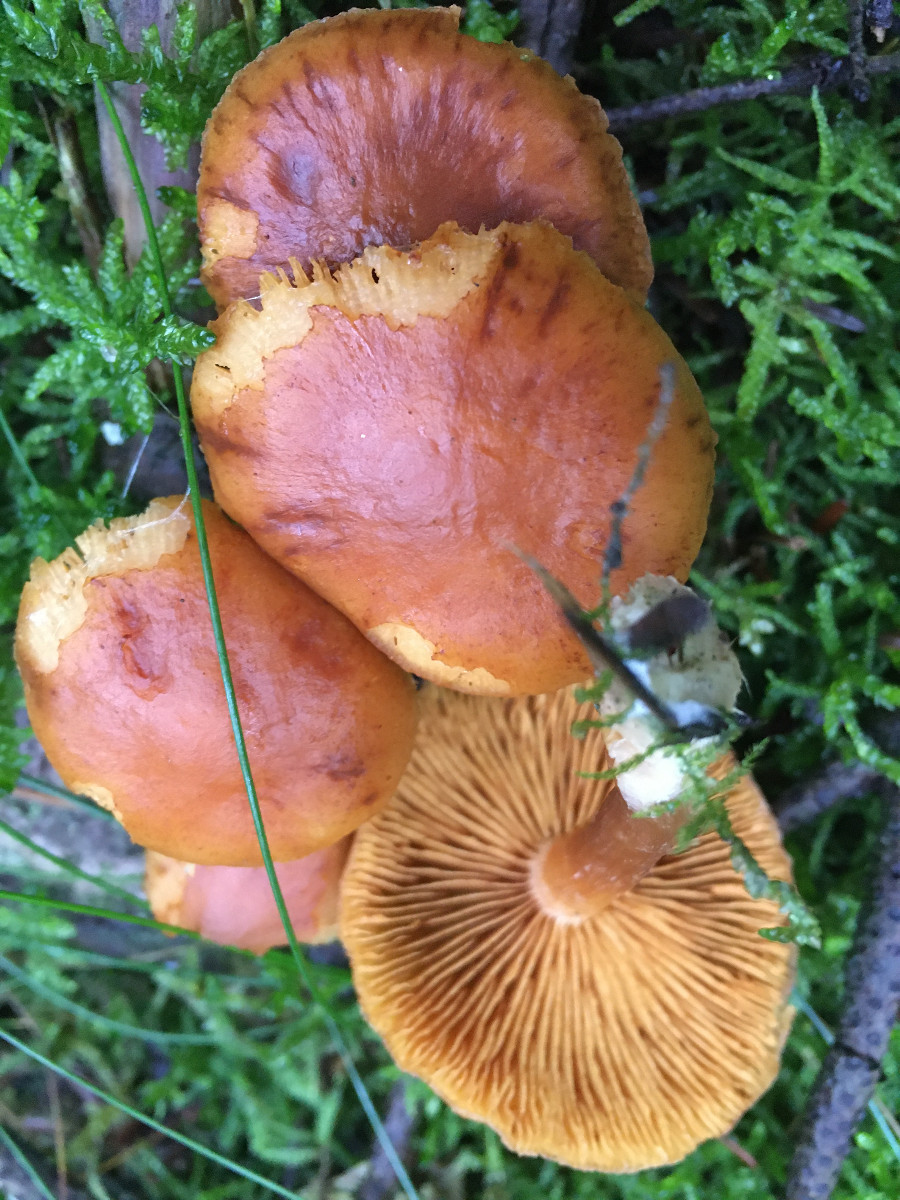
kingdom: Fungi
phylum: Basidiomycota
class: Agaricomycetes
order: Agaricales
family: Hymenogastraceae
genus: Gymnopilus
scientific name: Gymnopilus penetrans
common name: plettet flammehat
